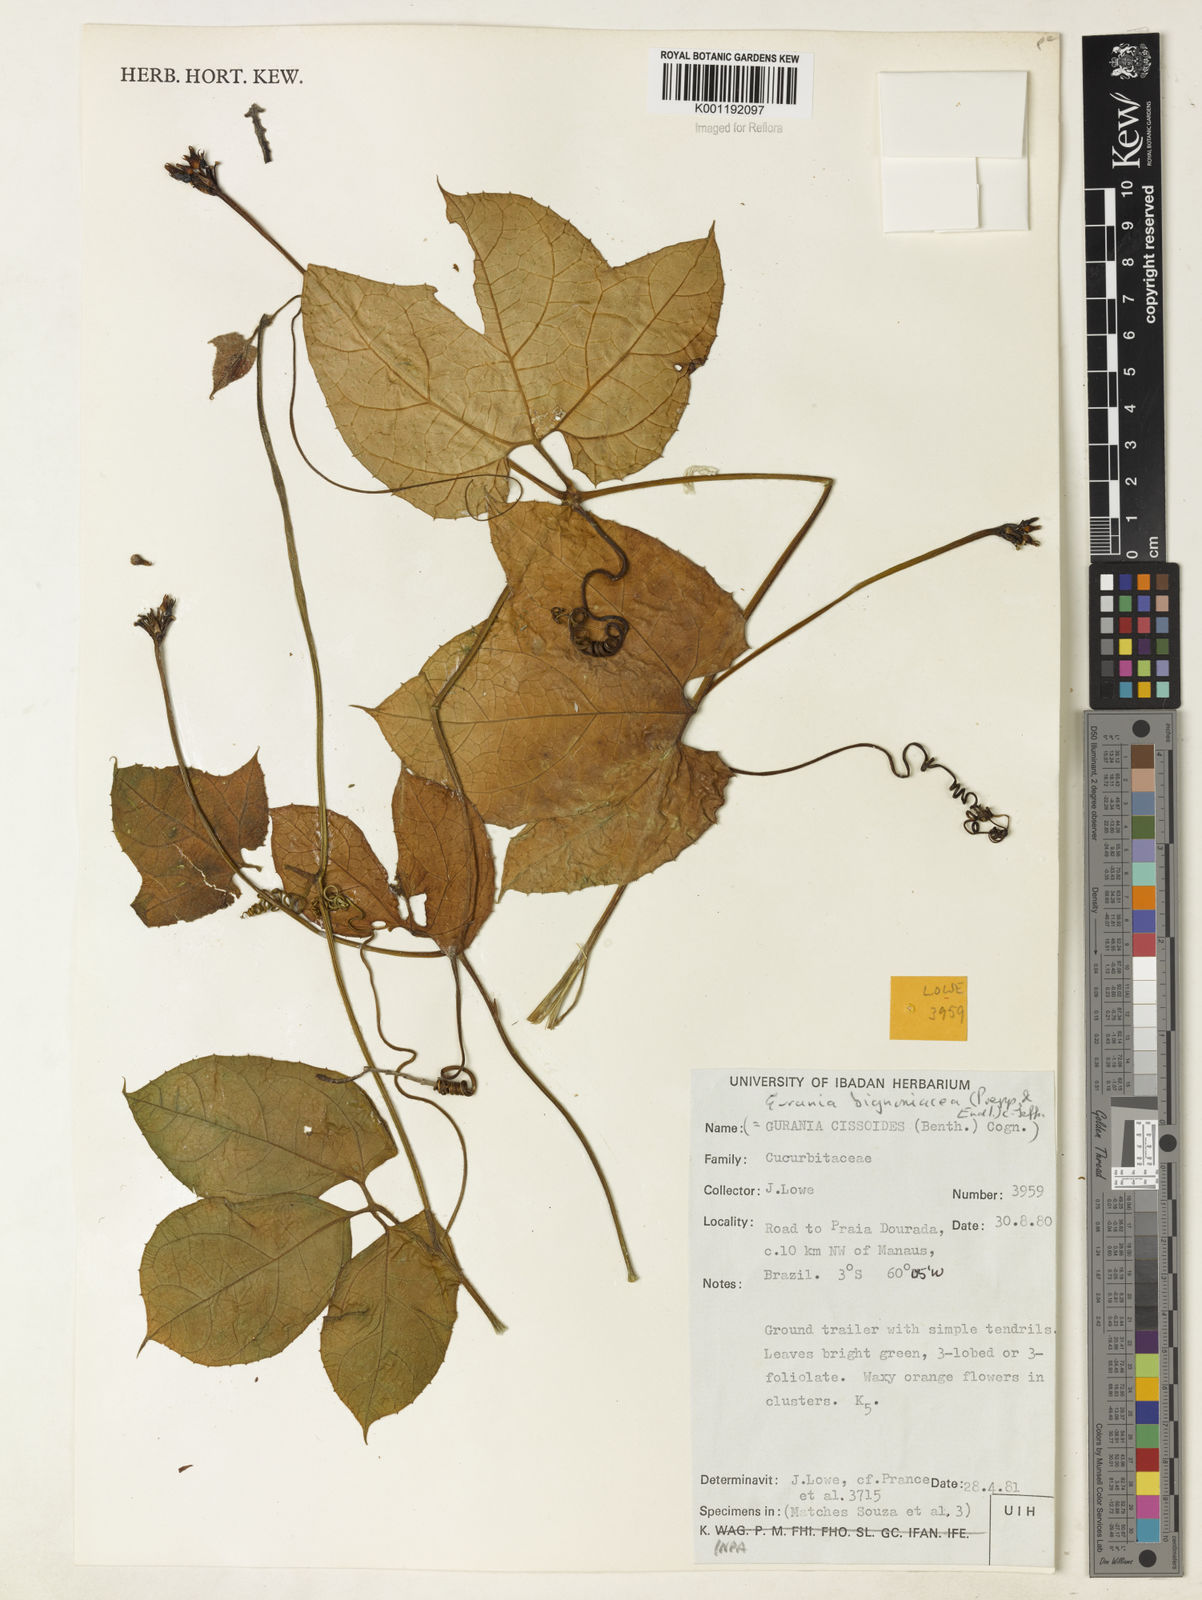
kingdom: Plantae
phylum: Tracheophyta
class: Magnoliopsida
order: Cucurbitales
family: Cucurbitaceae
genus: Gurania
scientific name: Gurania bignoniacea
